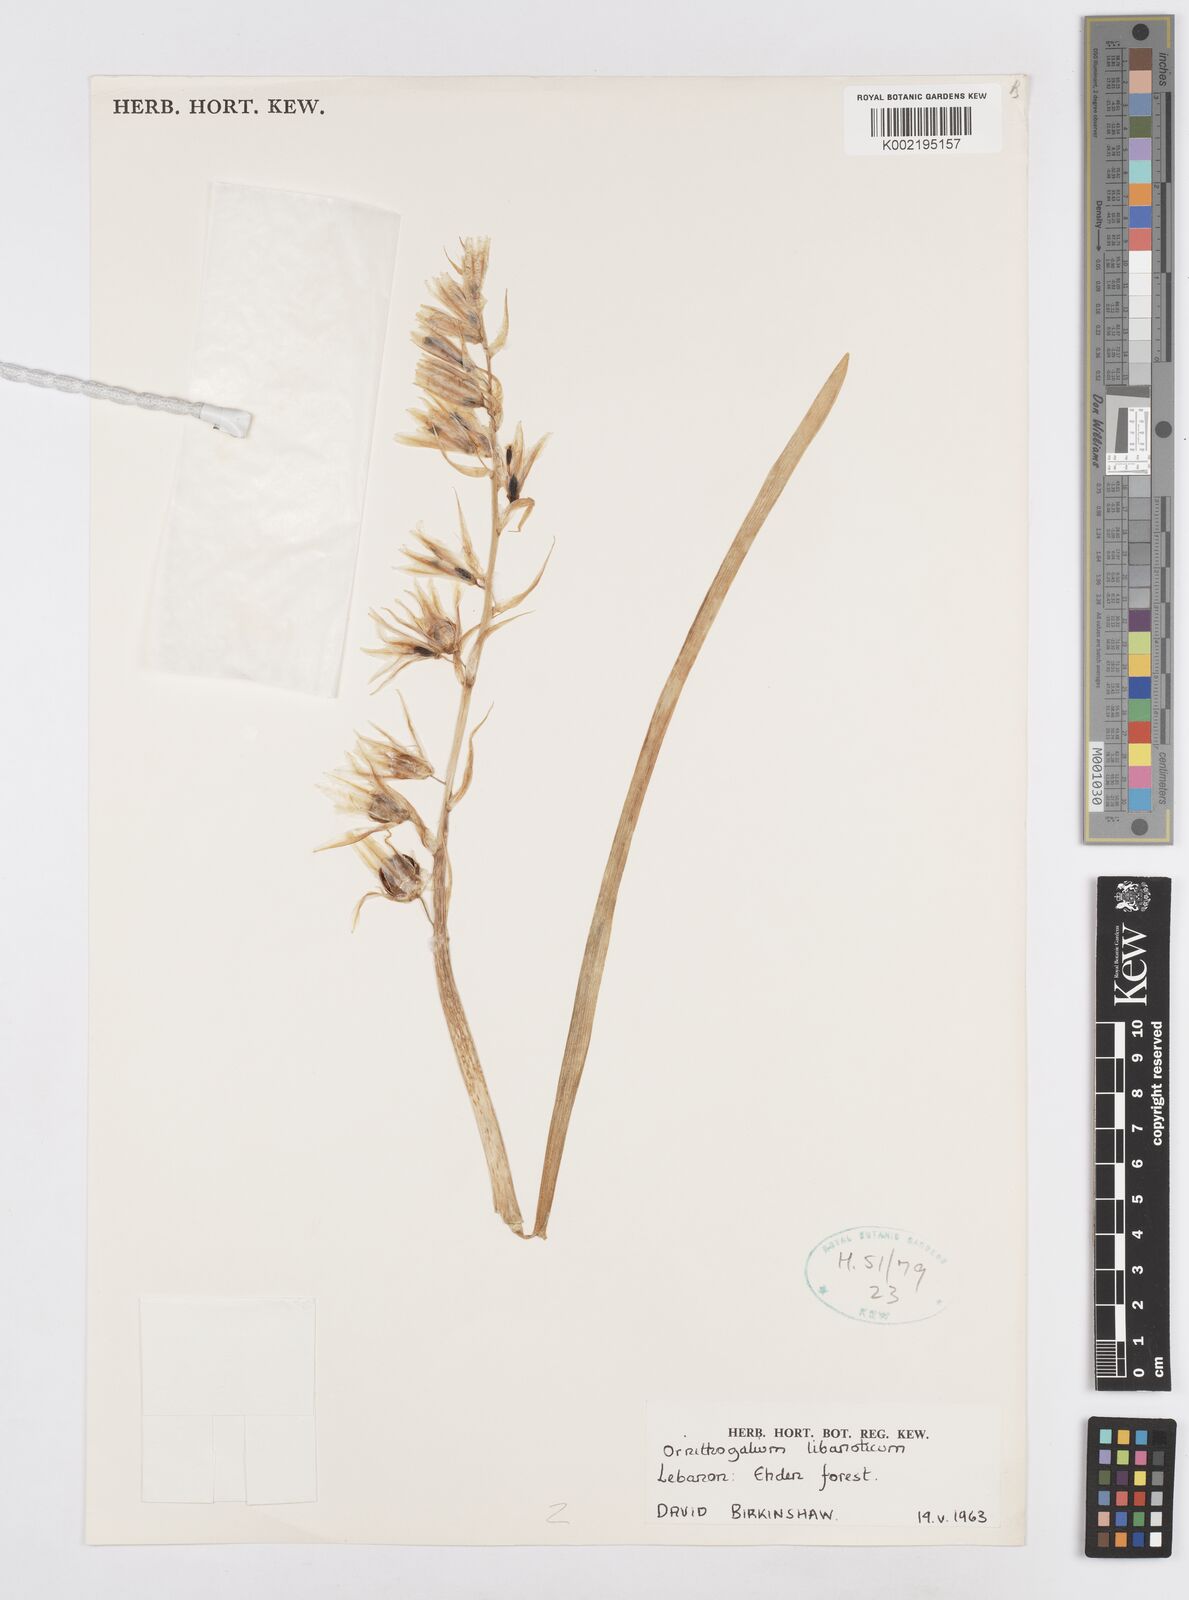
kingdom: Plantae
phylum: Tracheophyta
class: Liliopsida
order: Asparagales
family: Asparagaceae
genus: Ornithogalum
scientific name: Ornithogalum libanoticum
